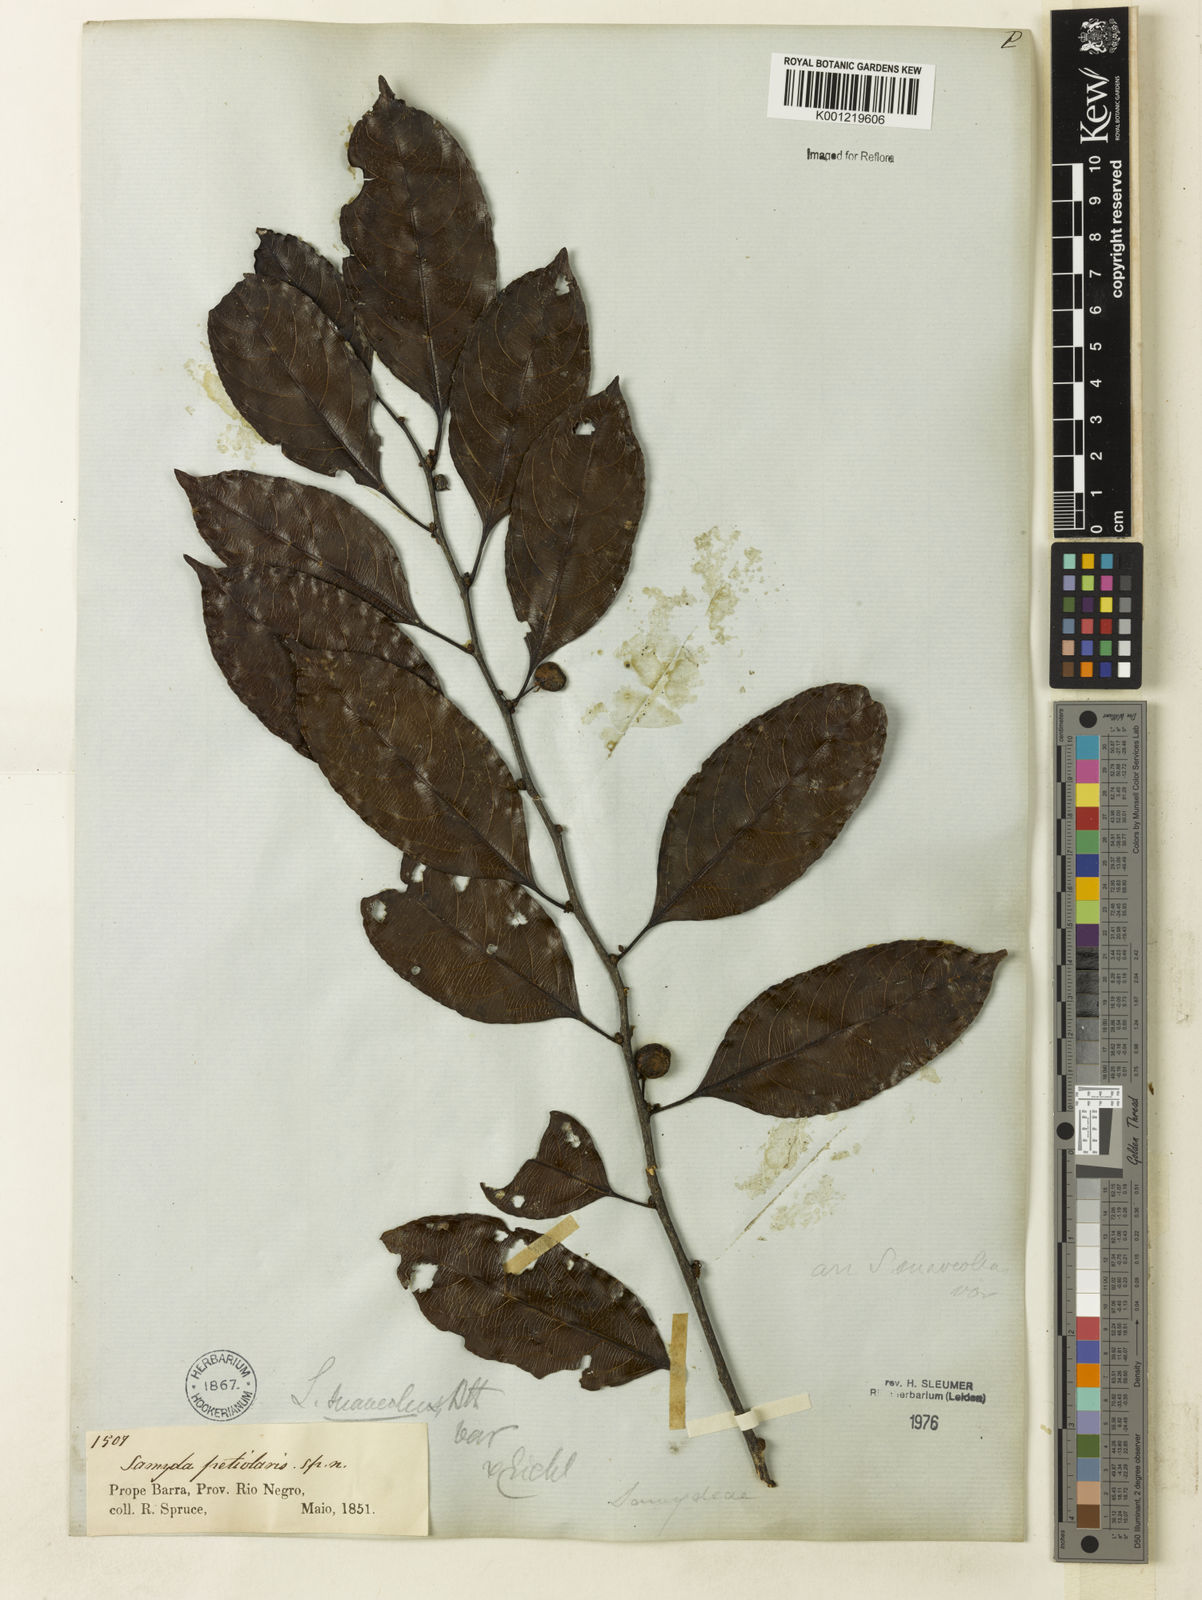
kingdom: Plantae
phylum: Tracheophyta
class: Magnoliopsida
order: Malpighiales
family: Salicaceae
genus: Casearia
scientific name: Casearia suaveolens
